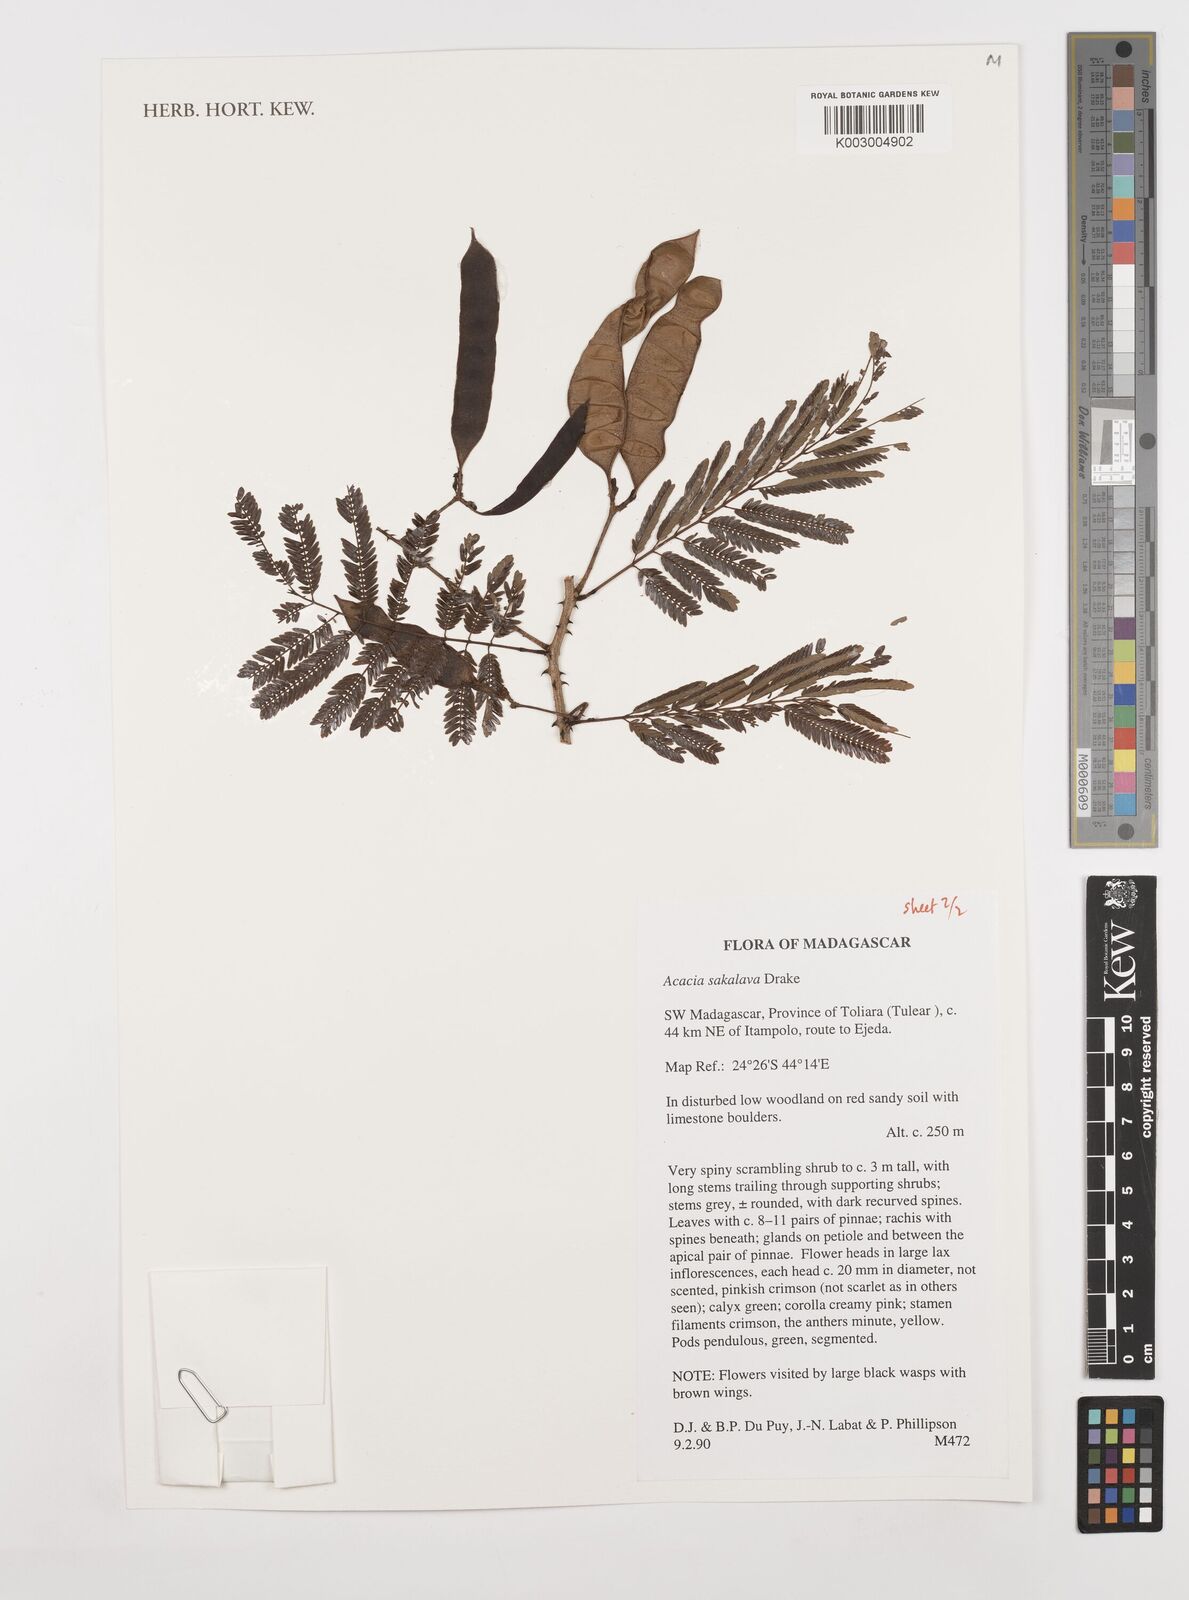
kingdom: Plantae
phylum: Tracheophyta
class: Magnoliopsida
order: Fabales
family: Fabaceae
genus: Senegalia
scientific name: Senegalia sakalava
